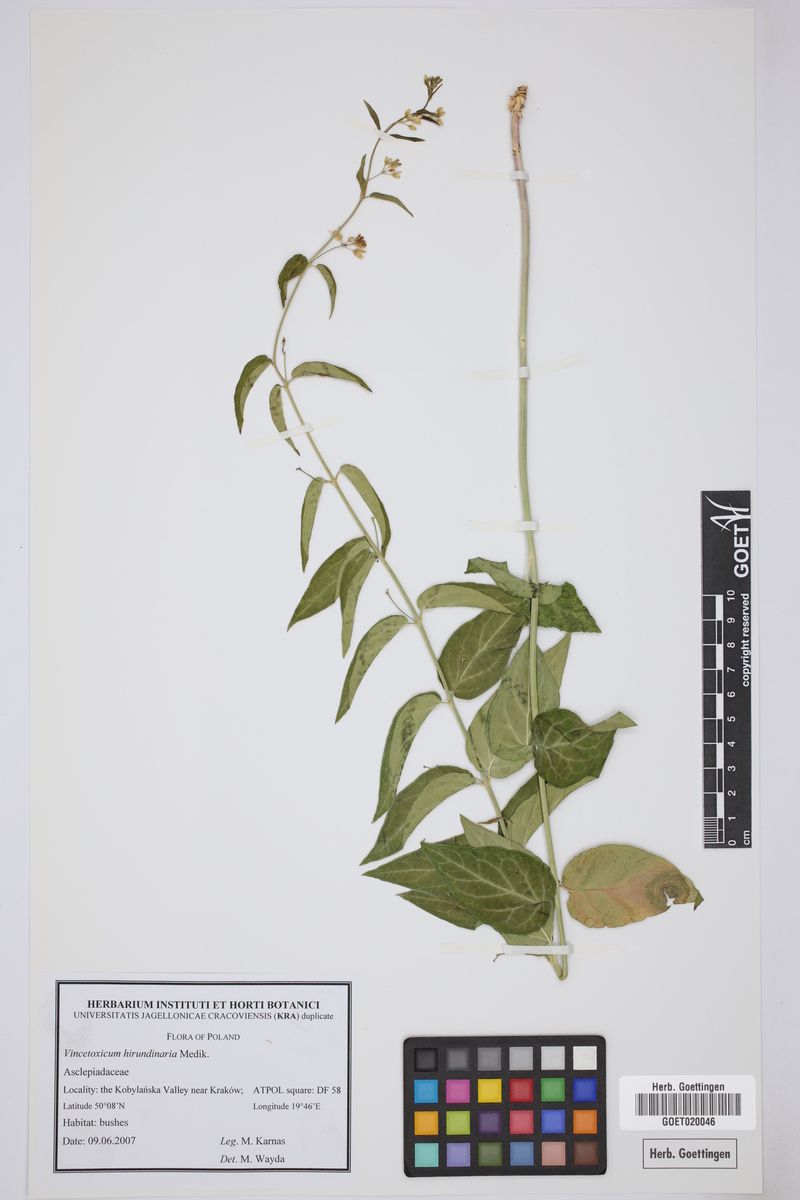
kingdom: Plantae
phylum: Tracheophyta
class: Magnoliopsida
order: Gentianales
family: Apocynaceae
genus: Vincetoxicum
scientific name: Vincetoxicum hirundinaria
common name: White swallowwort
